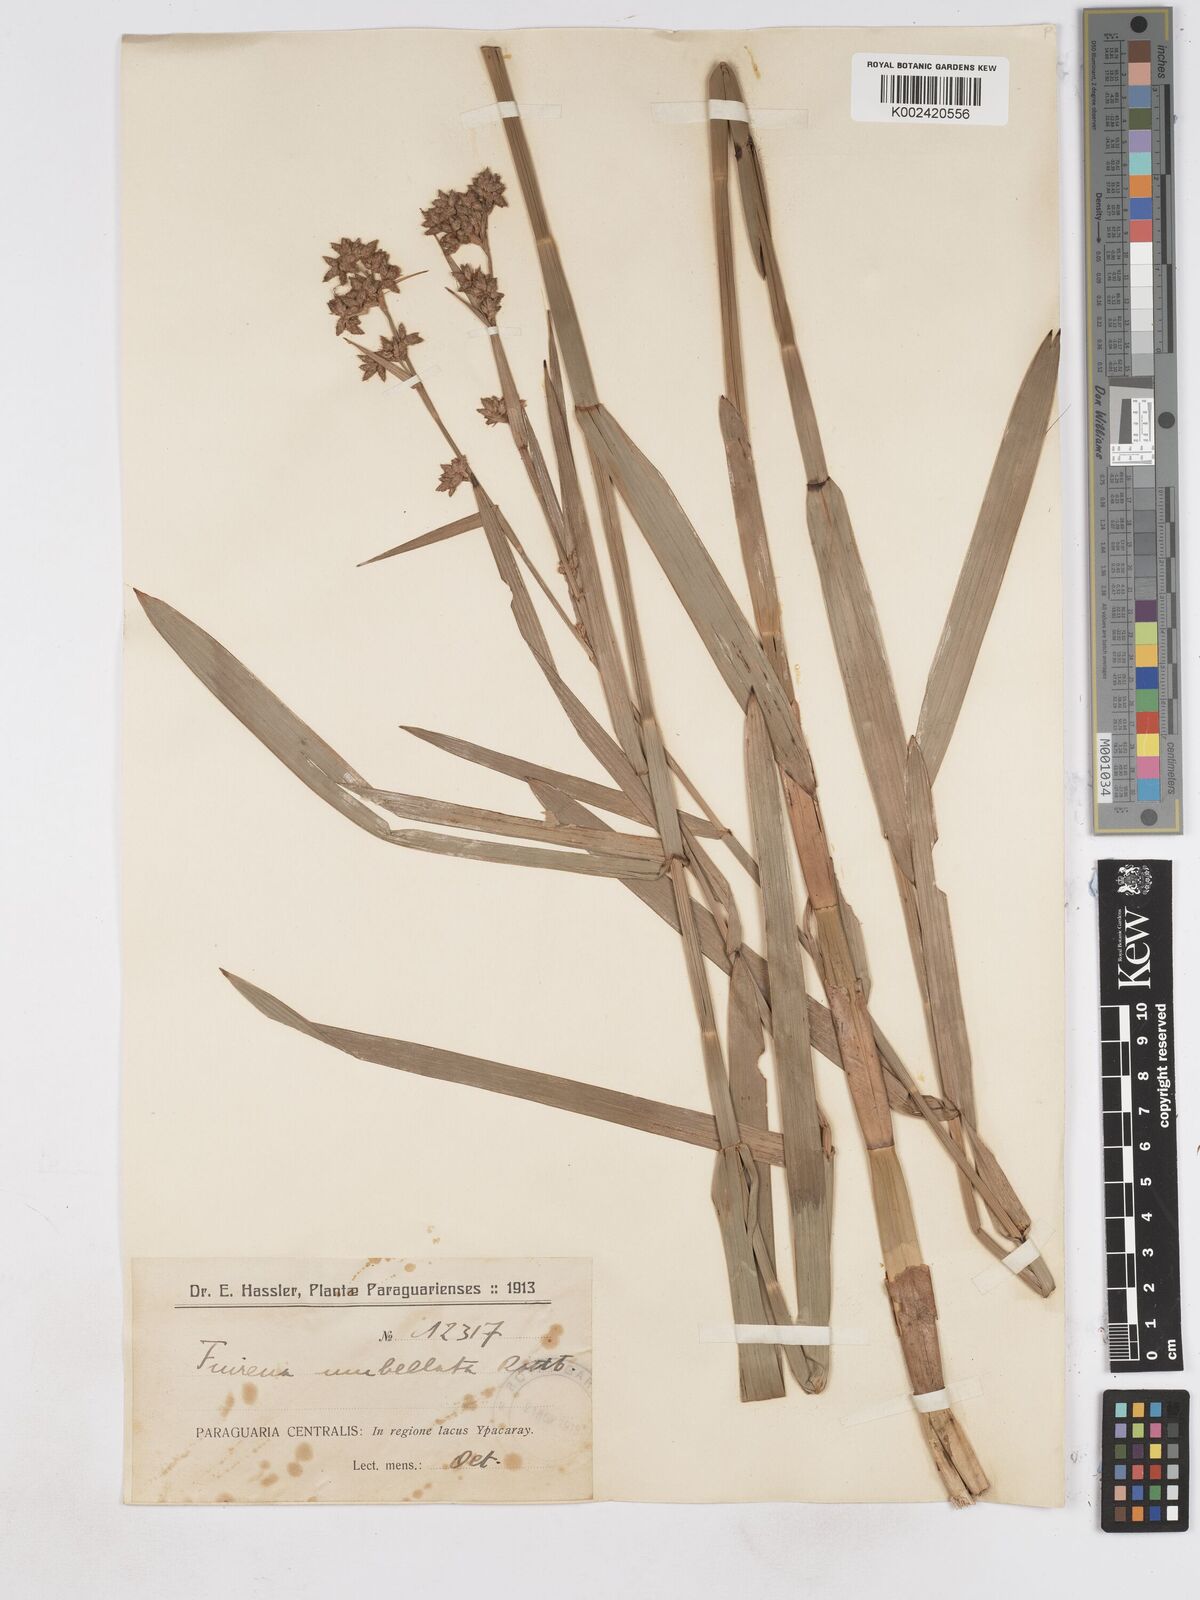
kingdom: Plantae
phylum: Tracheophyta
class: Liliopsida
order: Poales
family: Cyperaceae
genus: Fuirena
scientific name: Fuirena umbellata
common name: Yefen
